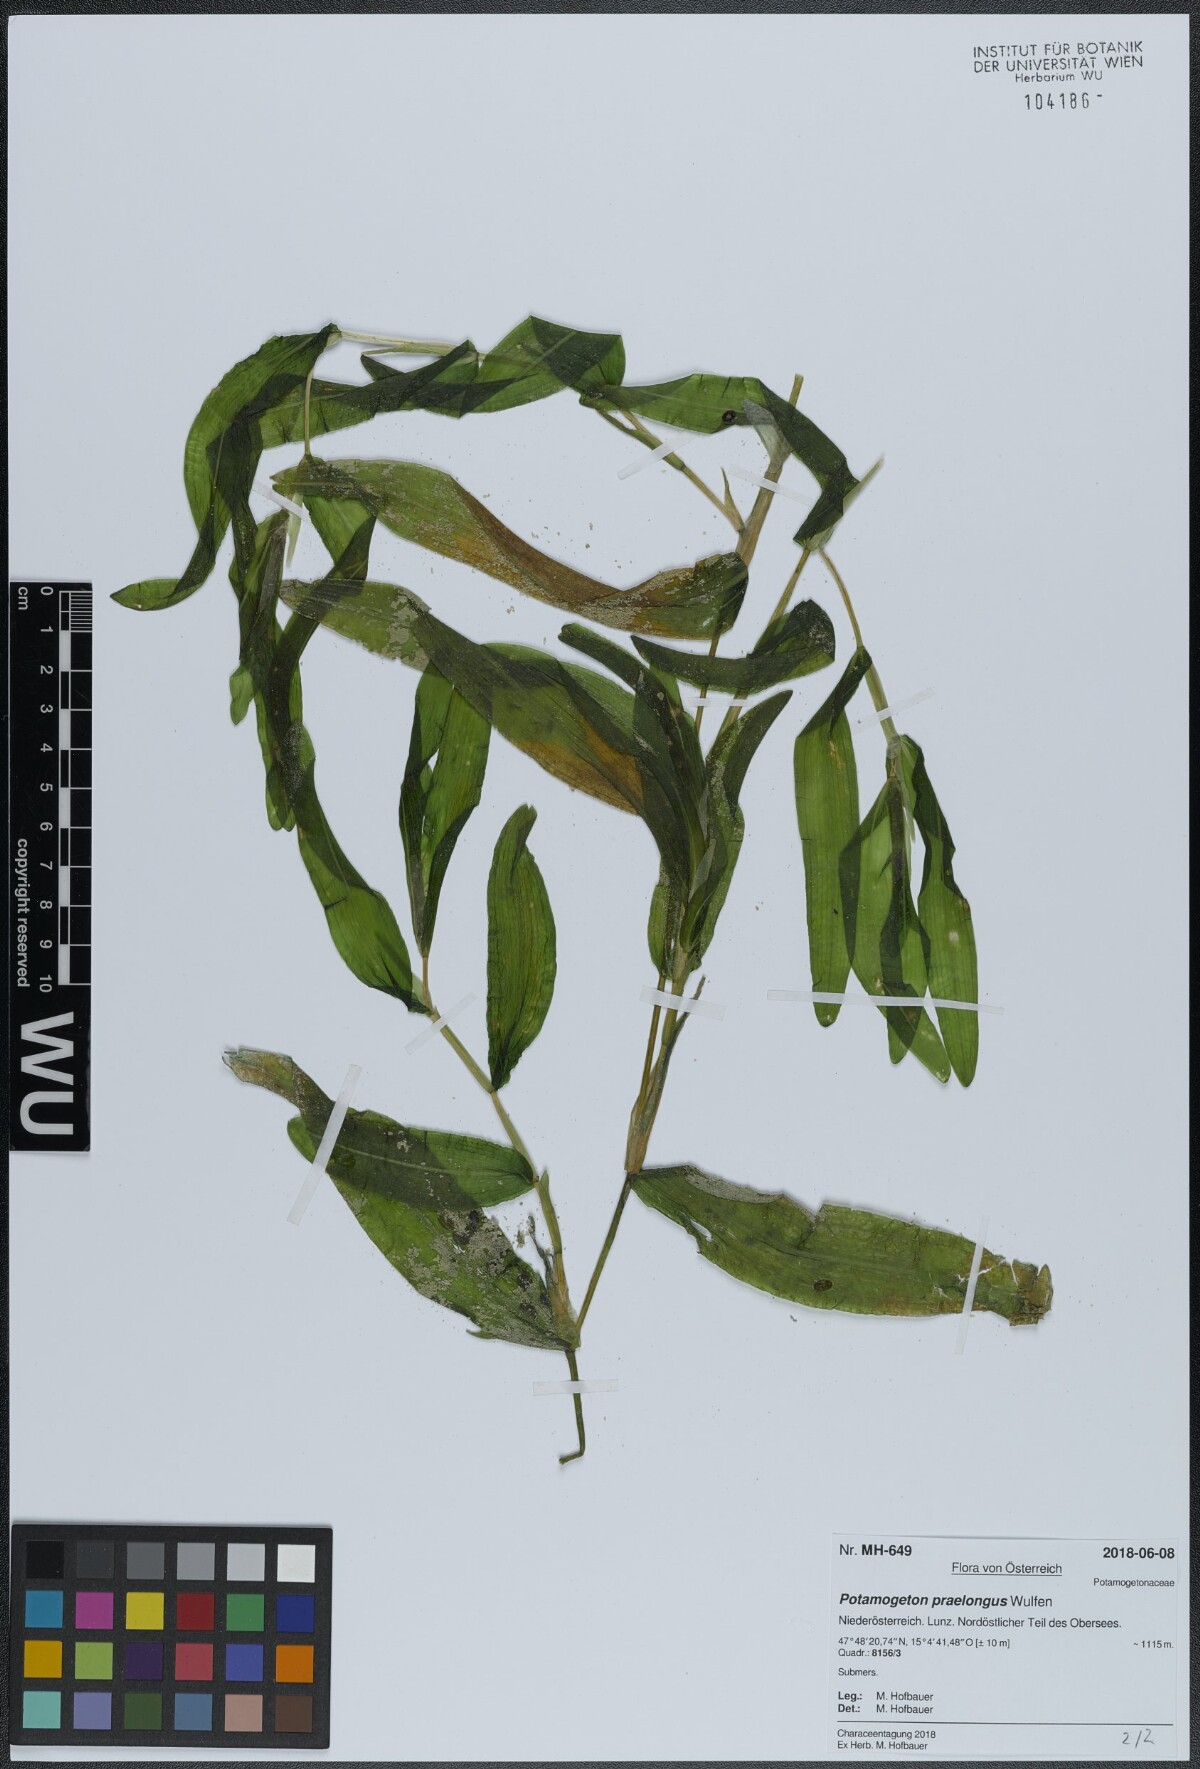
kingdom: Plantae
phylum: Tracheophyta
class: Liliopsida
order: Alismatales
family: Potamogetonaceae
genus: Potamogeton
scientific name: Potamogeton praelongus
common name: Long-stalked pondweed
